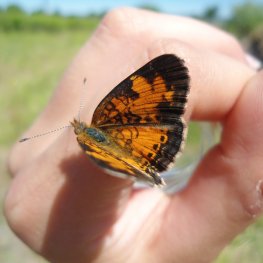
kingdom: Animalia
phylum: Arthropoda
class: Insecta
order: Lepidoptera
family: Nymphalidae
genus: Phyciodes
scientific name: Phyciodes tharos
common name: Pearl Crescent
